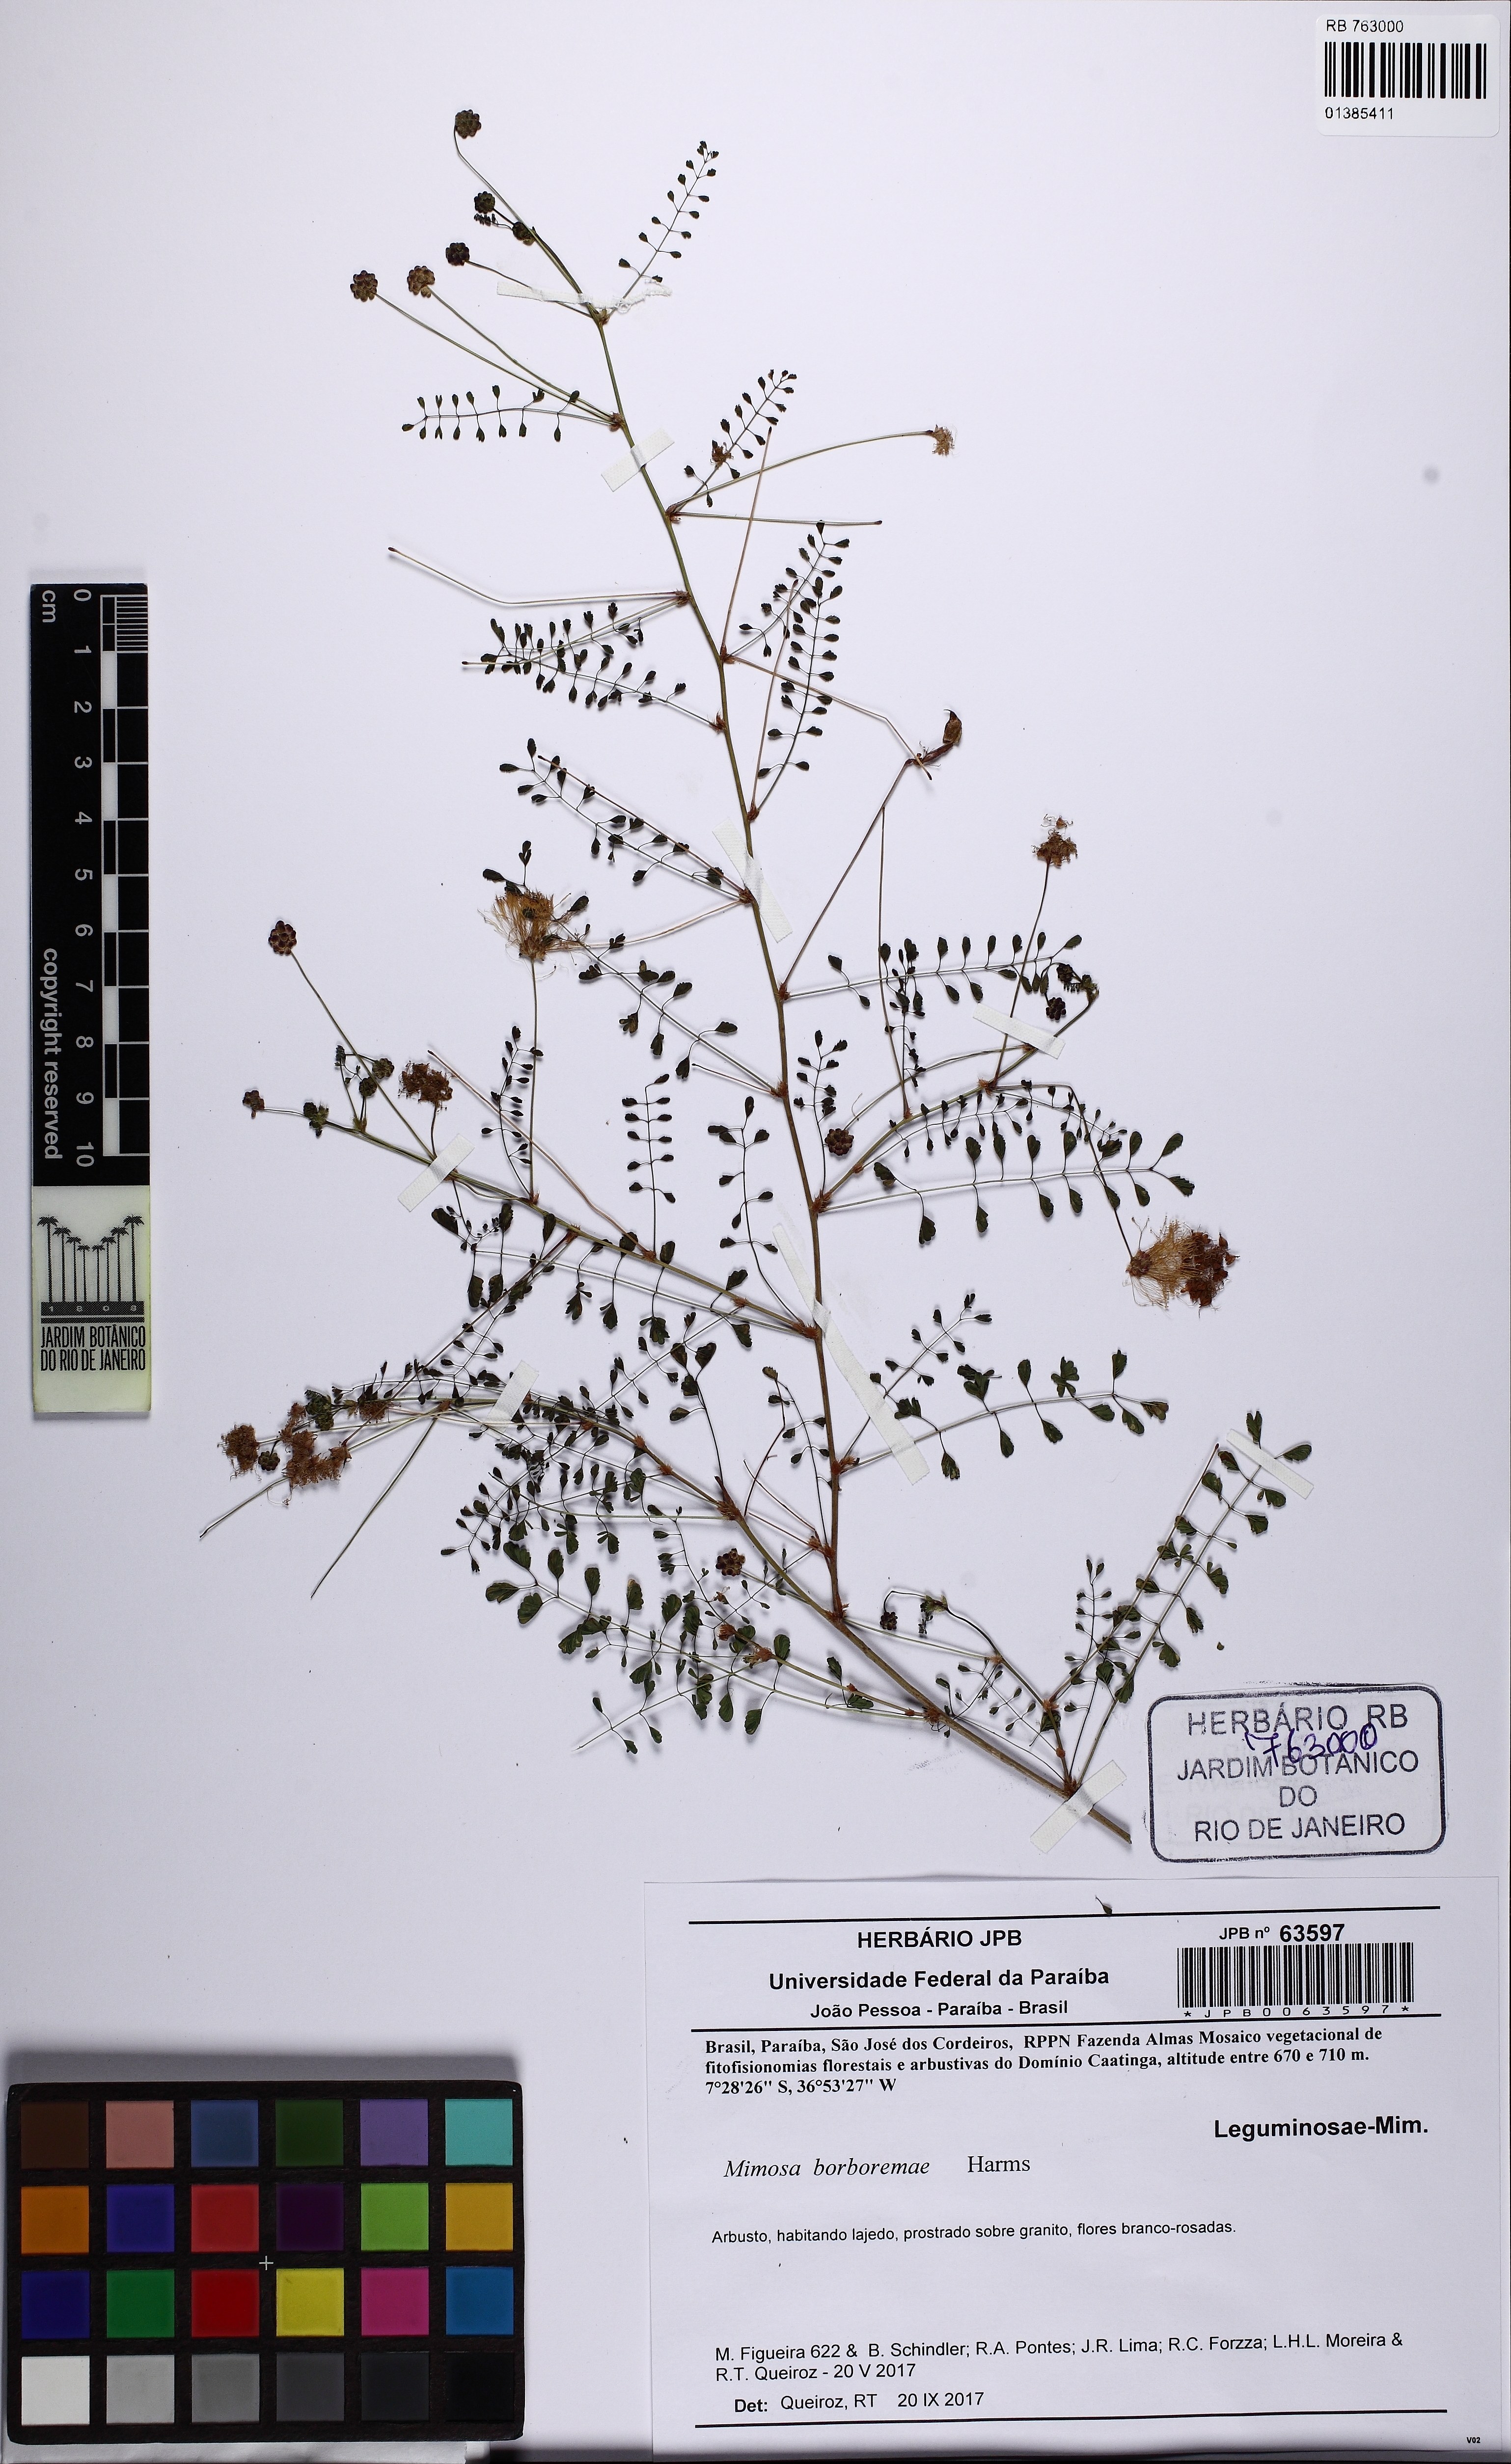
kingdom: Plantae
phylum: Tracheophyta
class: Magnoliopsida
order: Fabales
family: Fabaceae
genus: Mimosa
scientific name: Mimosa borboremae
